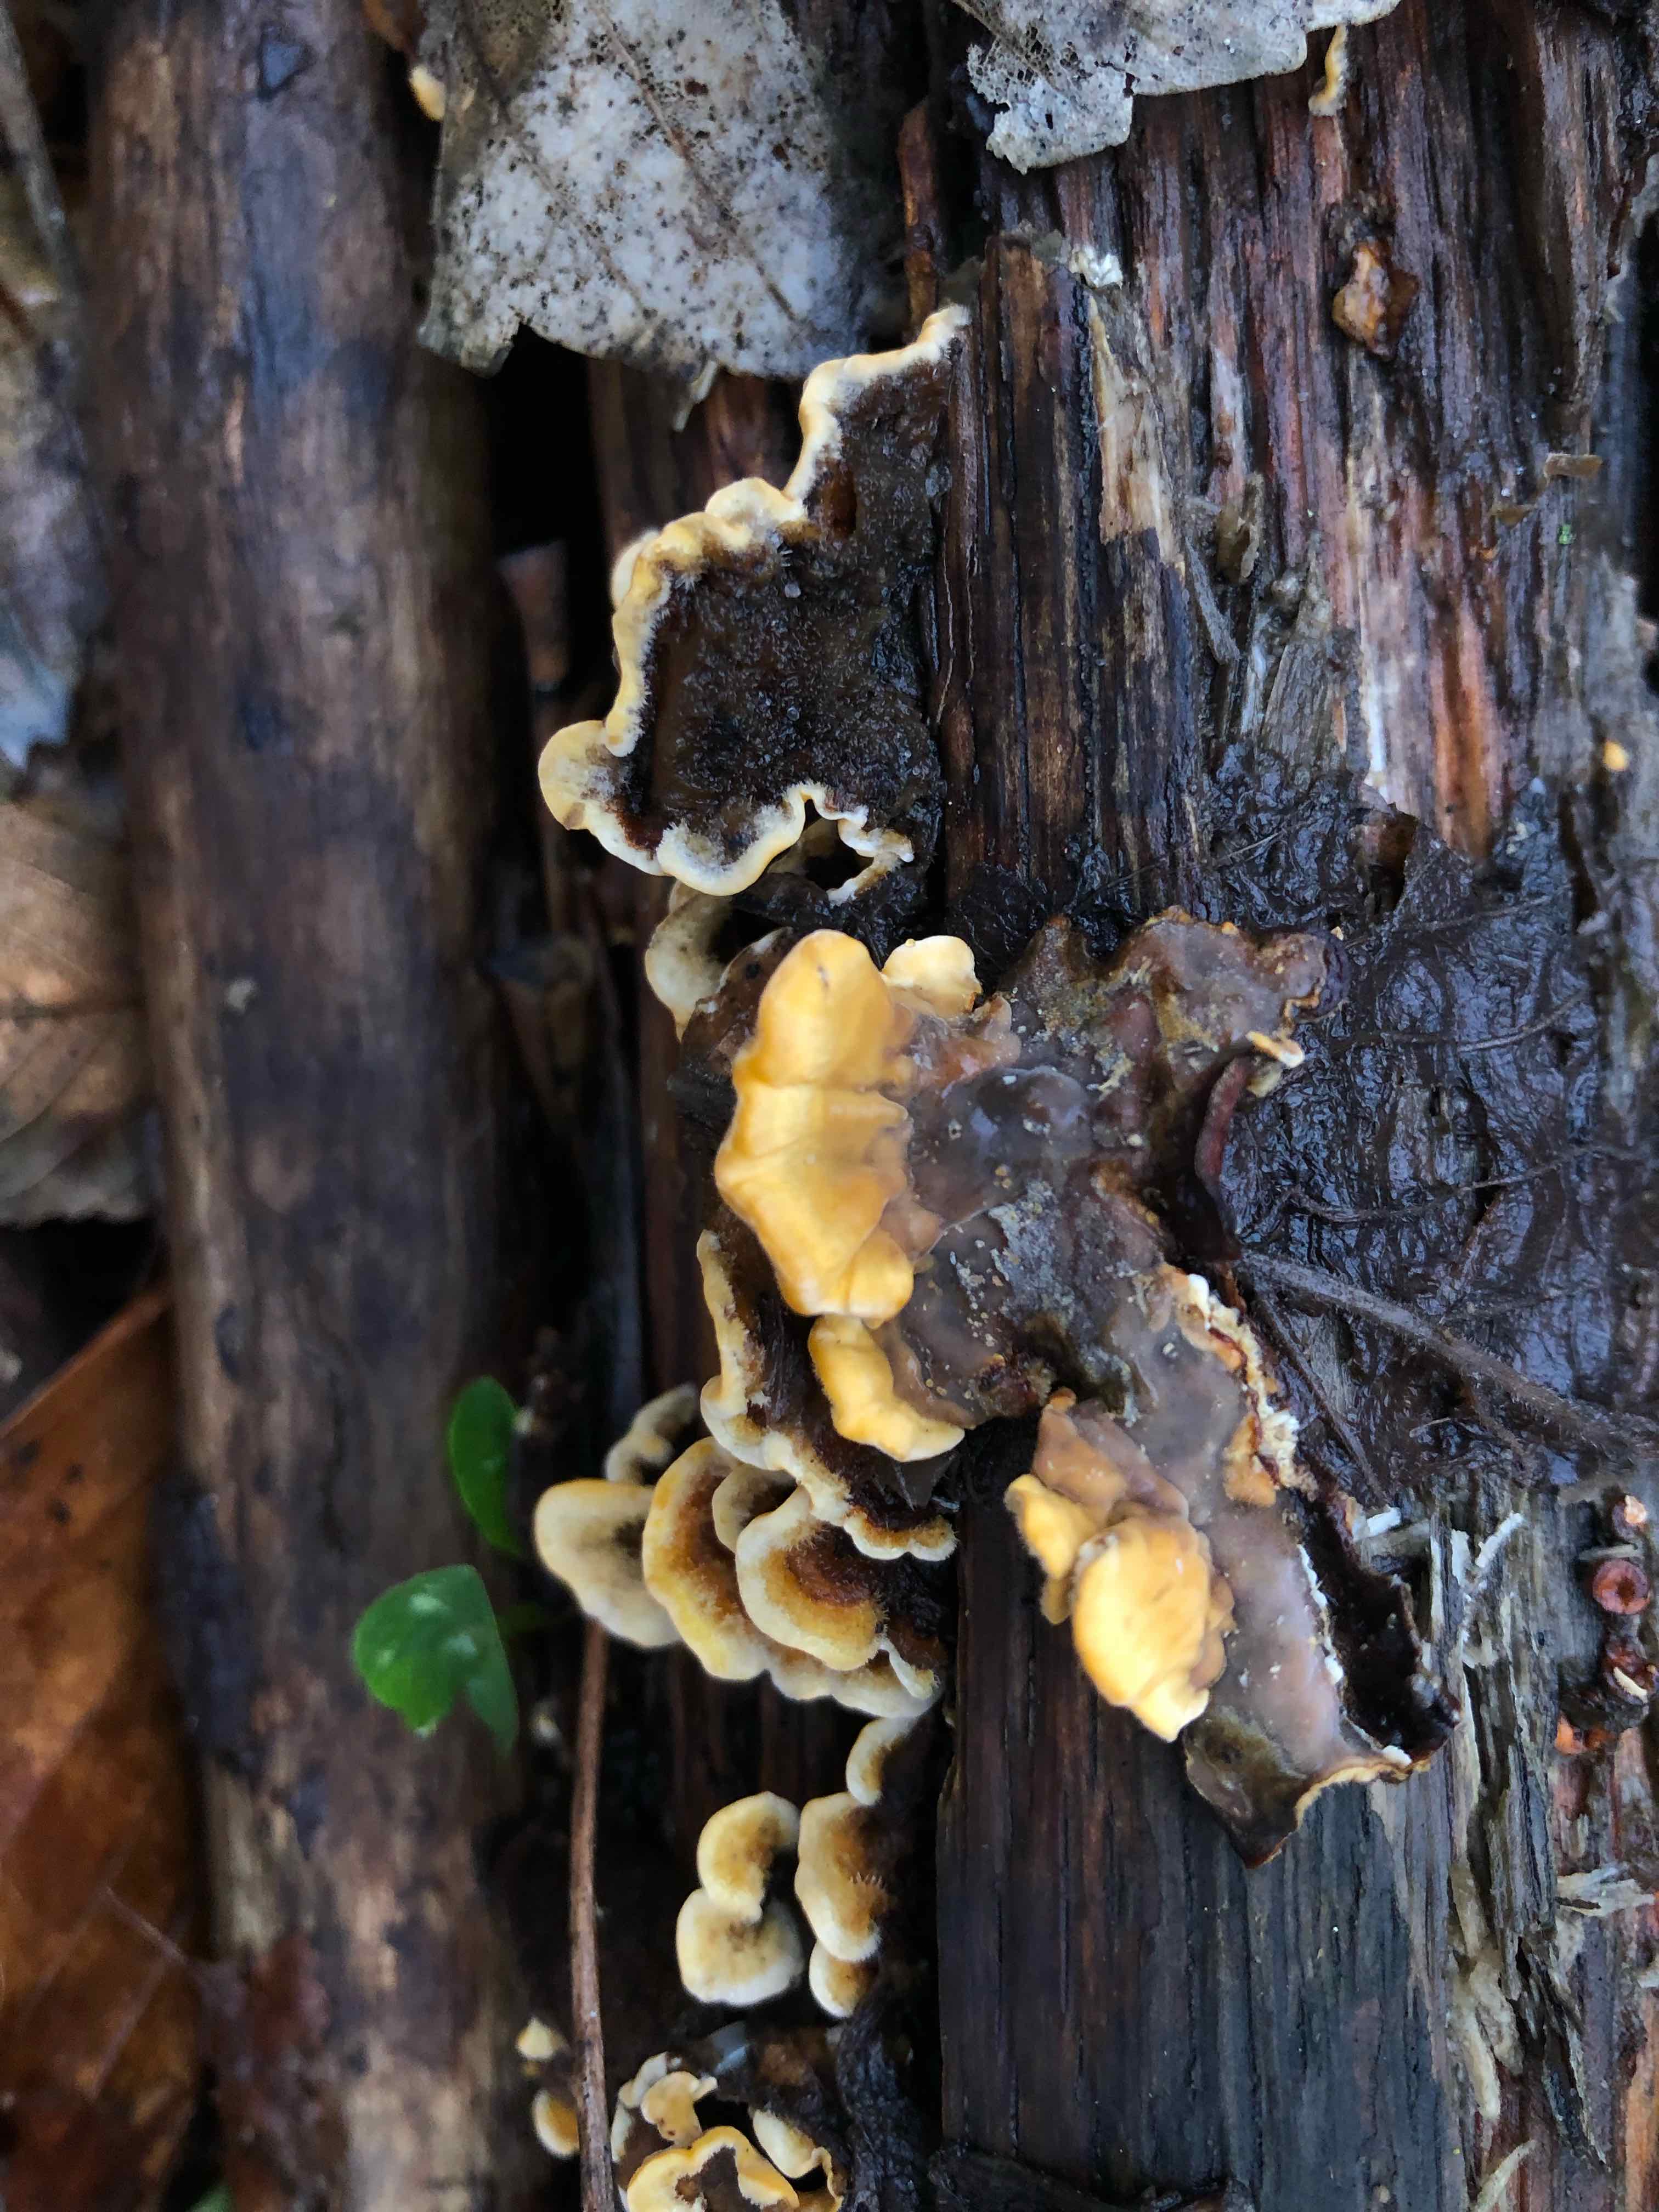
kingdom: Fungi
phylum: Basidiomycota
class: Agaricomycetes
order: Russulales
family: Stereaceae
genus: Stereum
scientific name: Stereum hirsutum
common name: håret lædersvamp
